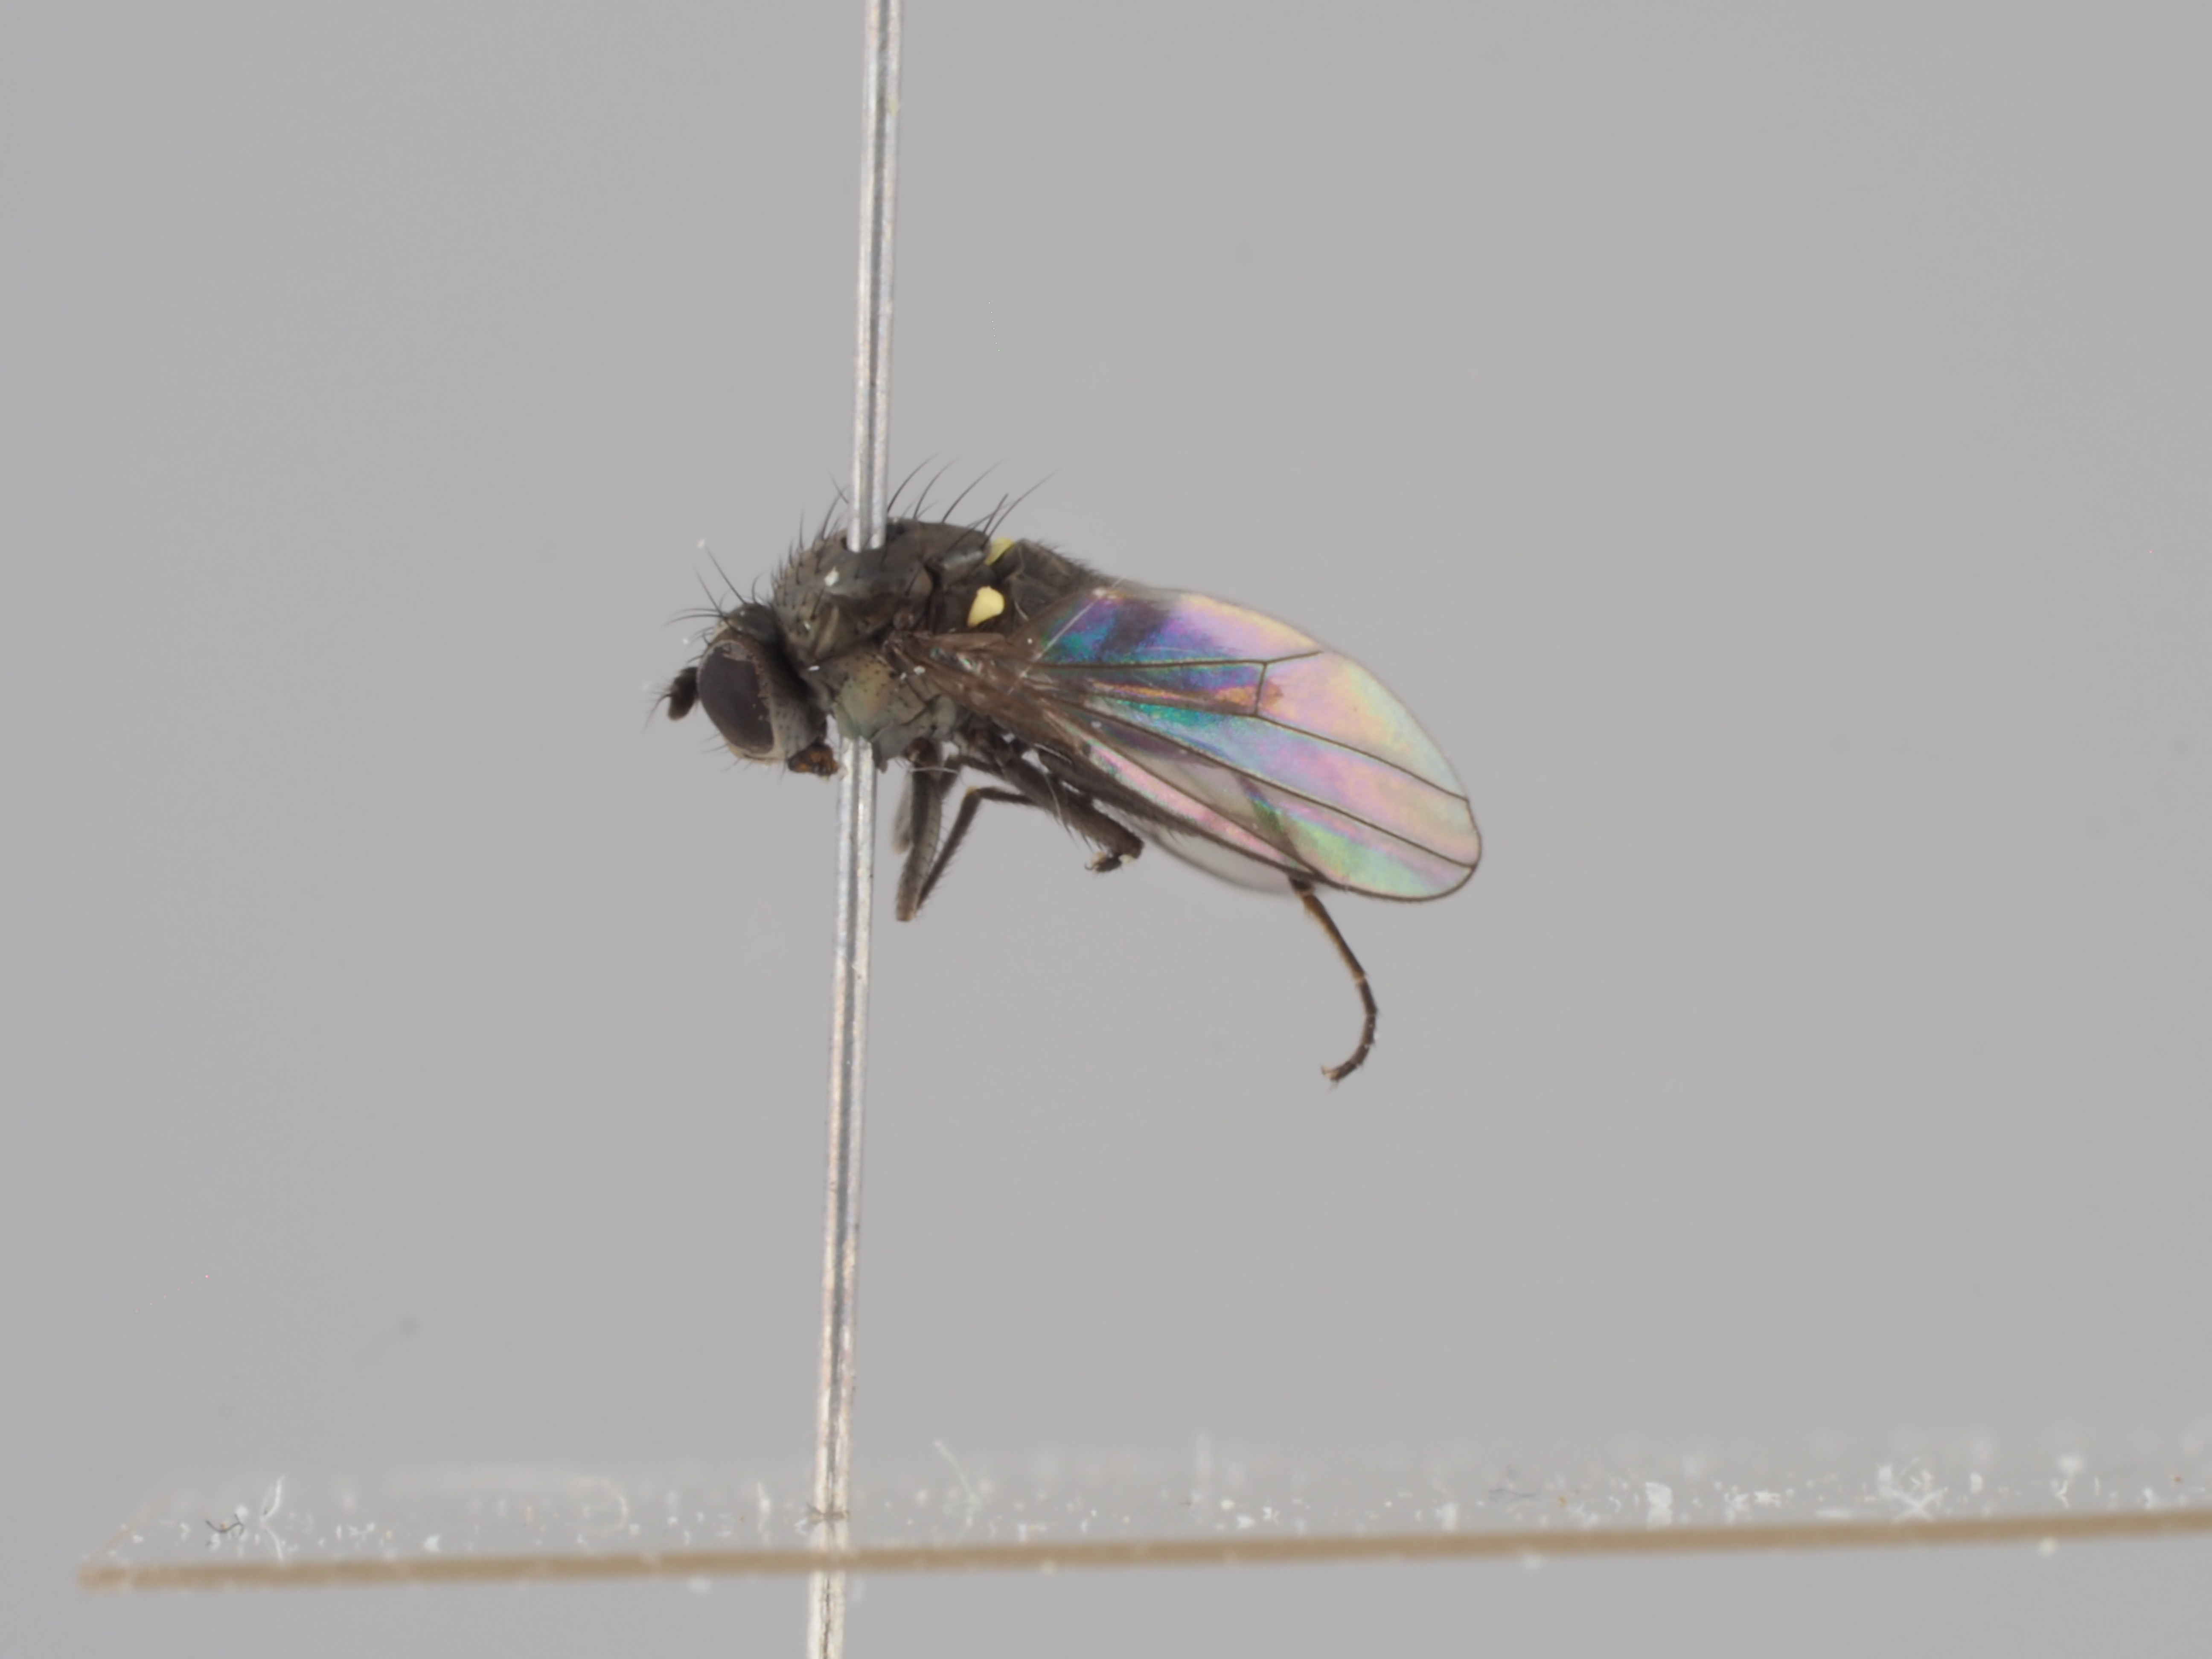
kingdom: Animalia
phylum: Arthropoda
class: Insecta
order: Diptera
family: Ephydridae
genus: Hydrellia
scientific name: Hydrellia caledonica
